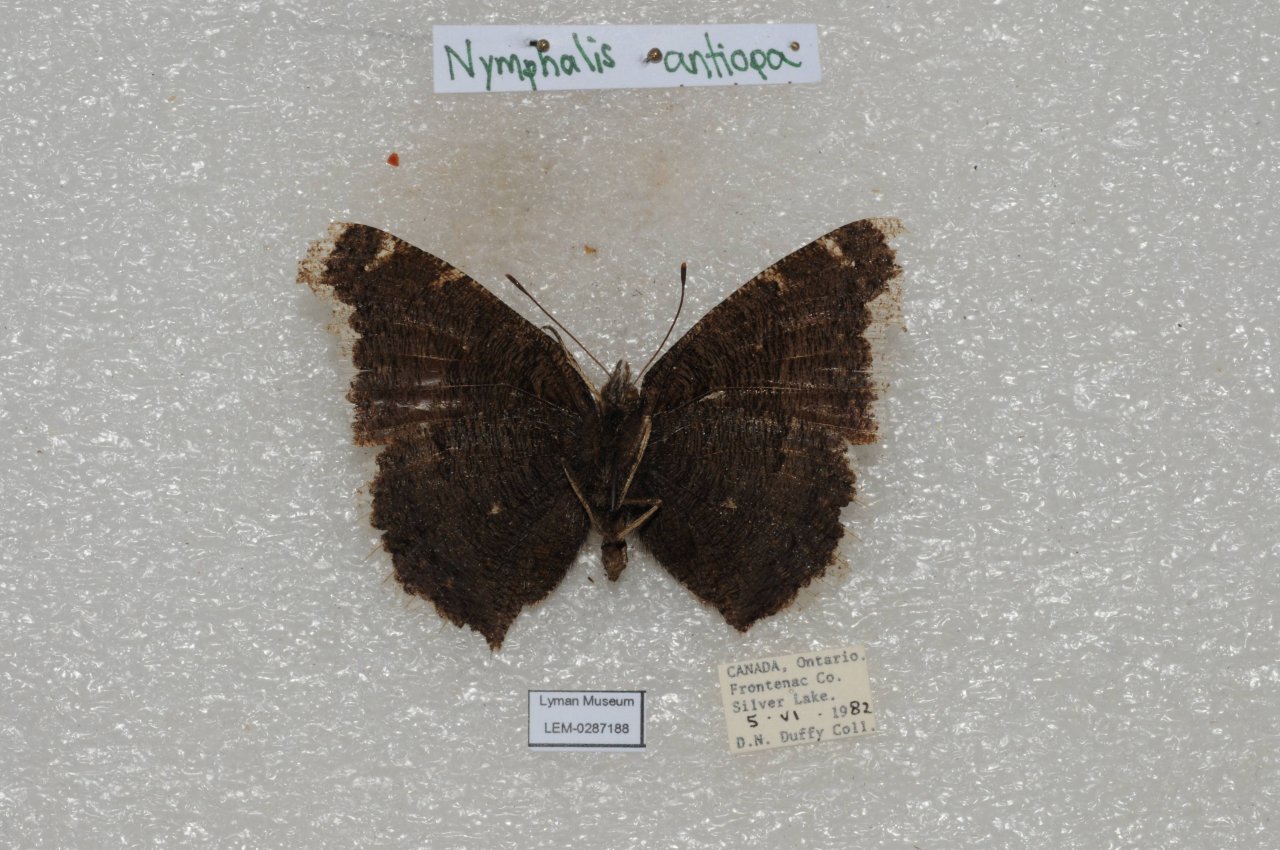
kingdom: Animalia
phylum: Arthropoda
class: Insecta
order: Lepidoptera
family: Nymphalidae
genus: Nymphalis
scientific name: Nymphalis antiopa
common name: Mourning Cloak
